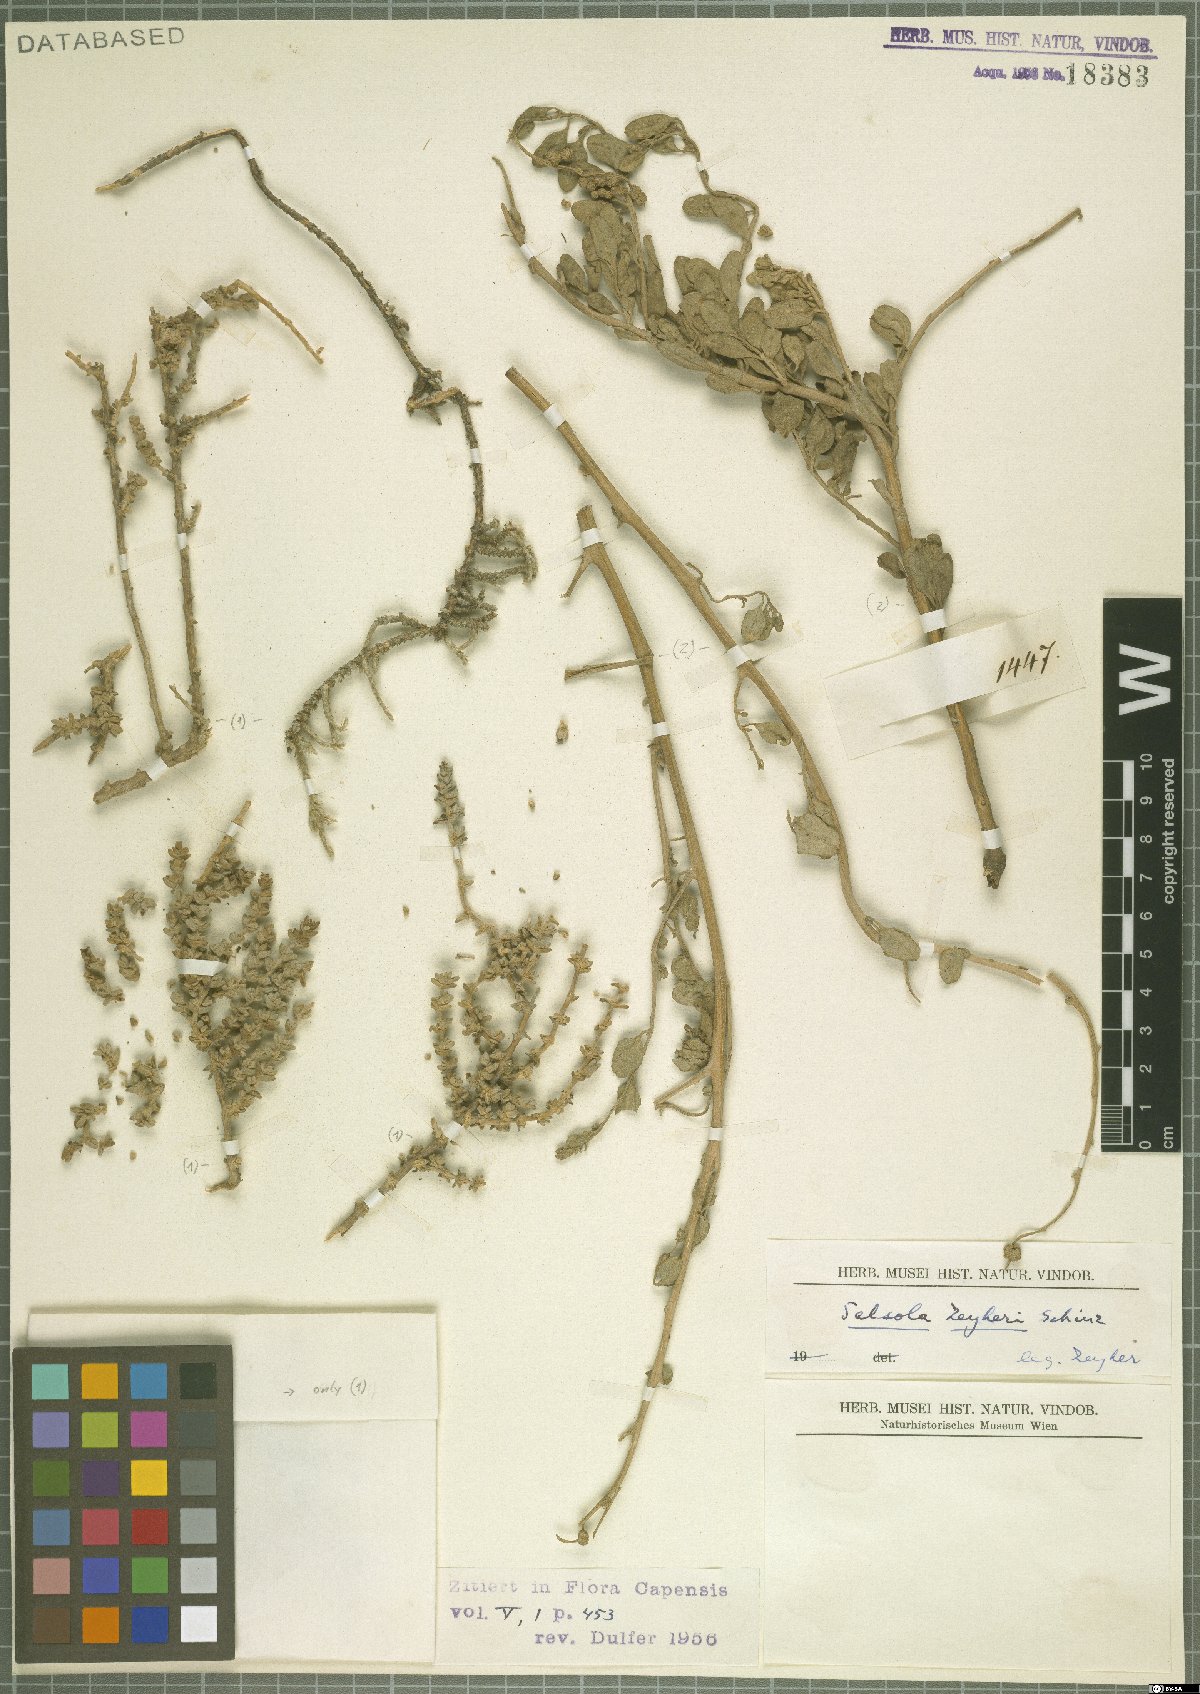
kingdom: Plantae
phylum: Tracheophyta
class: Magnoliopsida
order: Caryophyllales
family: Amaranthaceae
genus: Atriplex
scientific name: Atriplex
